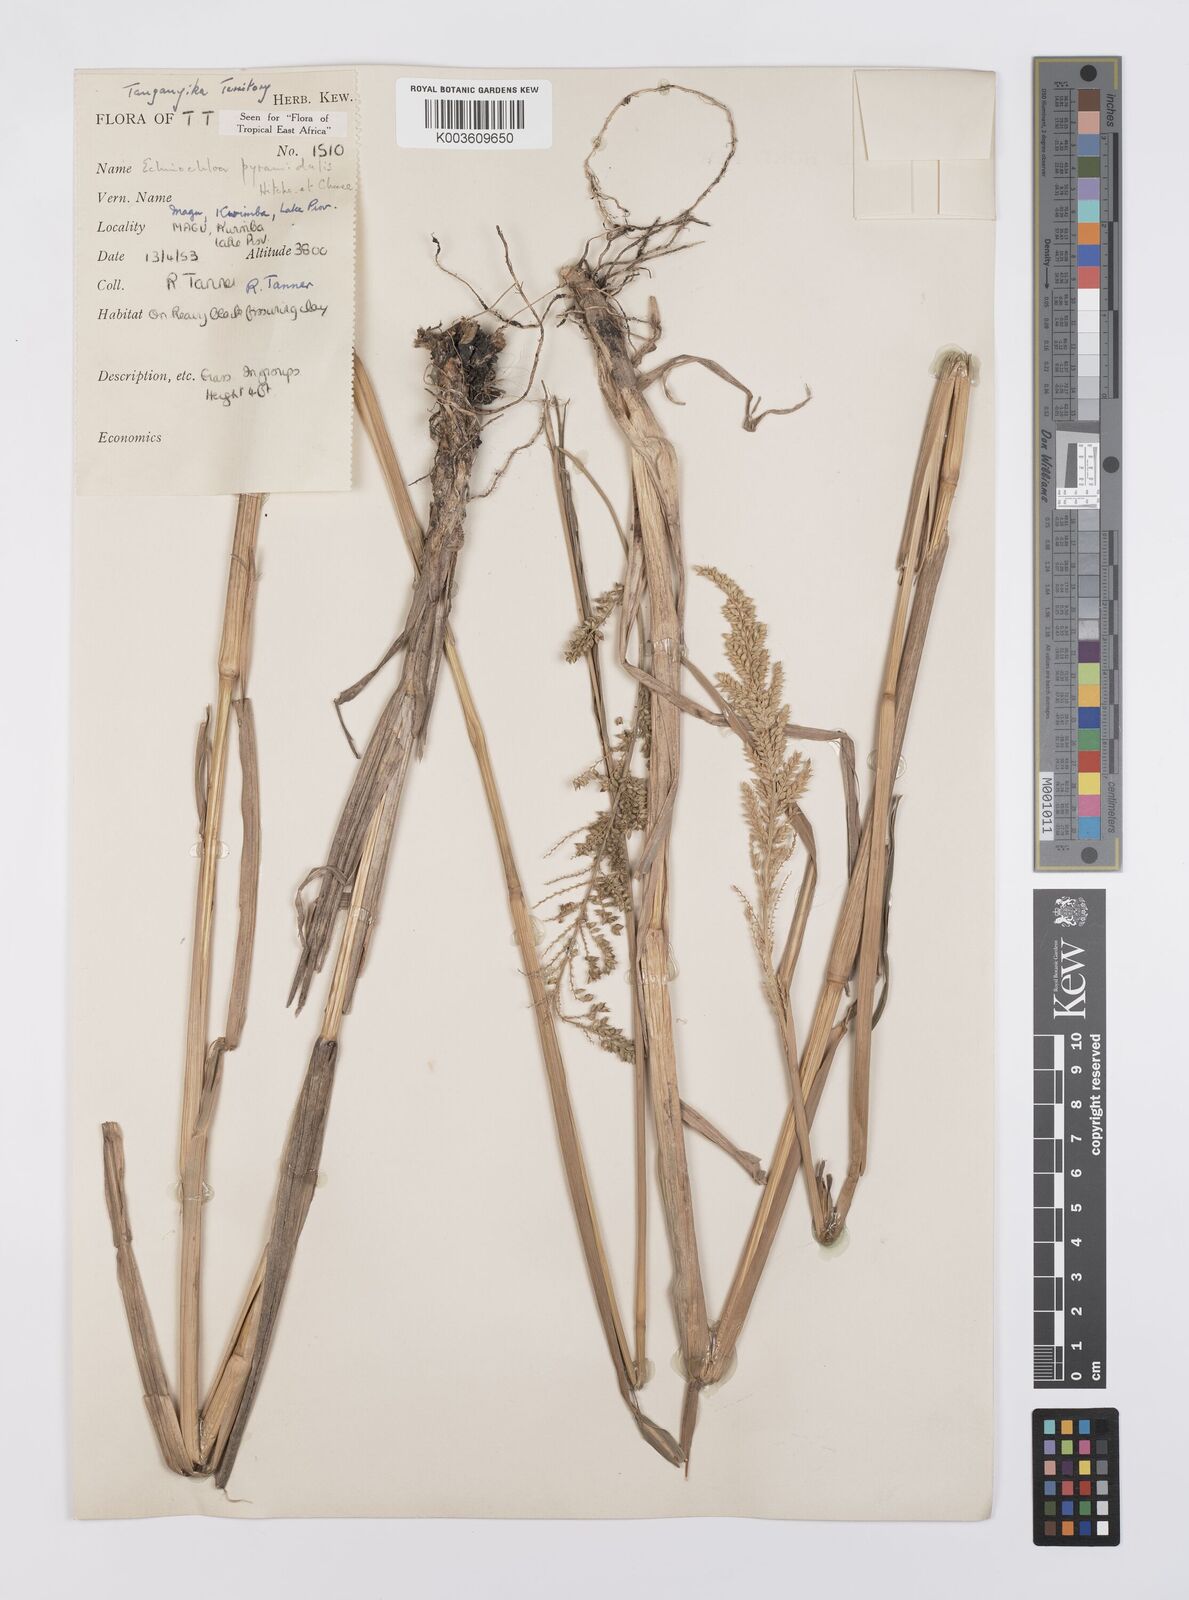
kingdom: Plantae
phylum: Tracheophyta
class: Liliopsida
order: Poales
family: Poaceae
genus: Echinochloa
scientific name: Echinochloa pyramidalis
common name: Antelope grass
